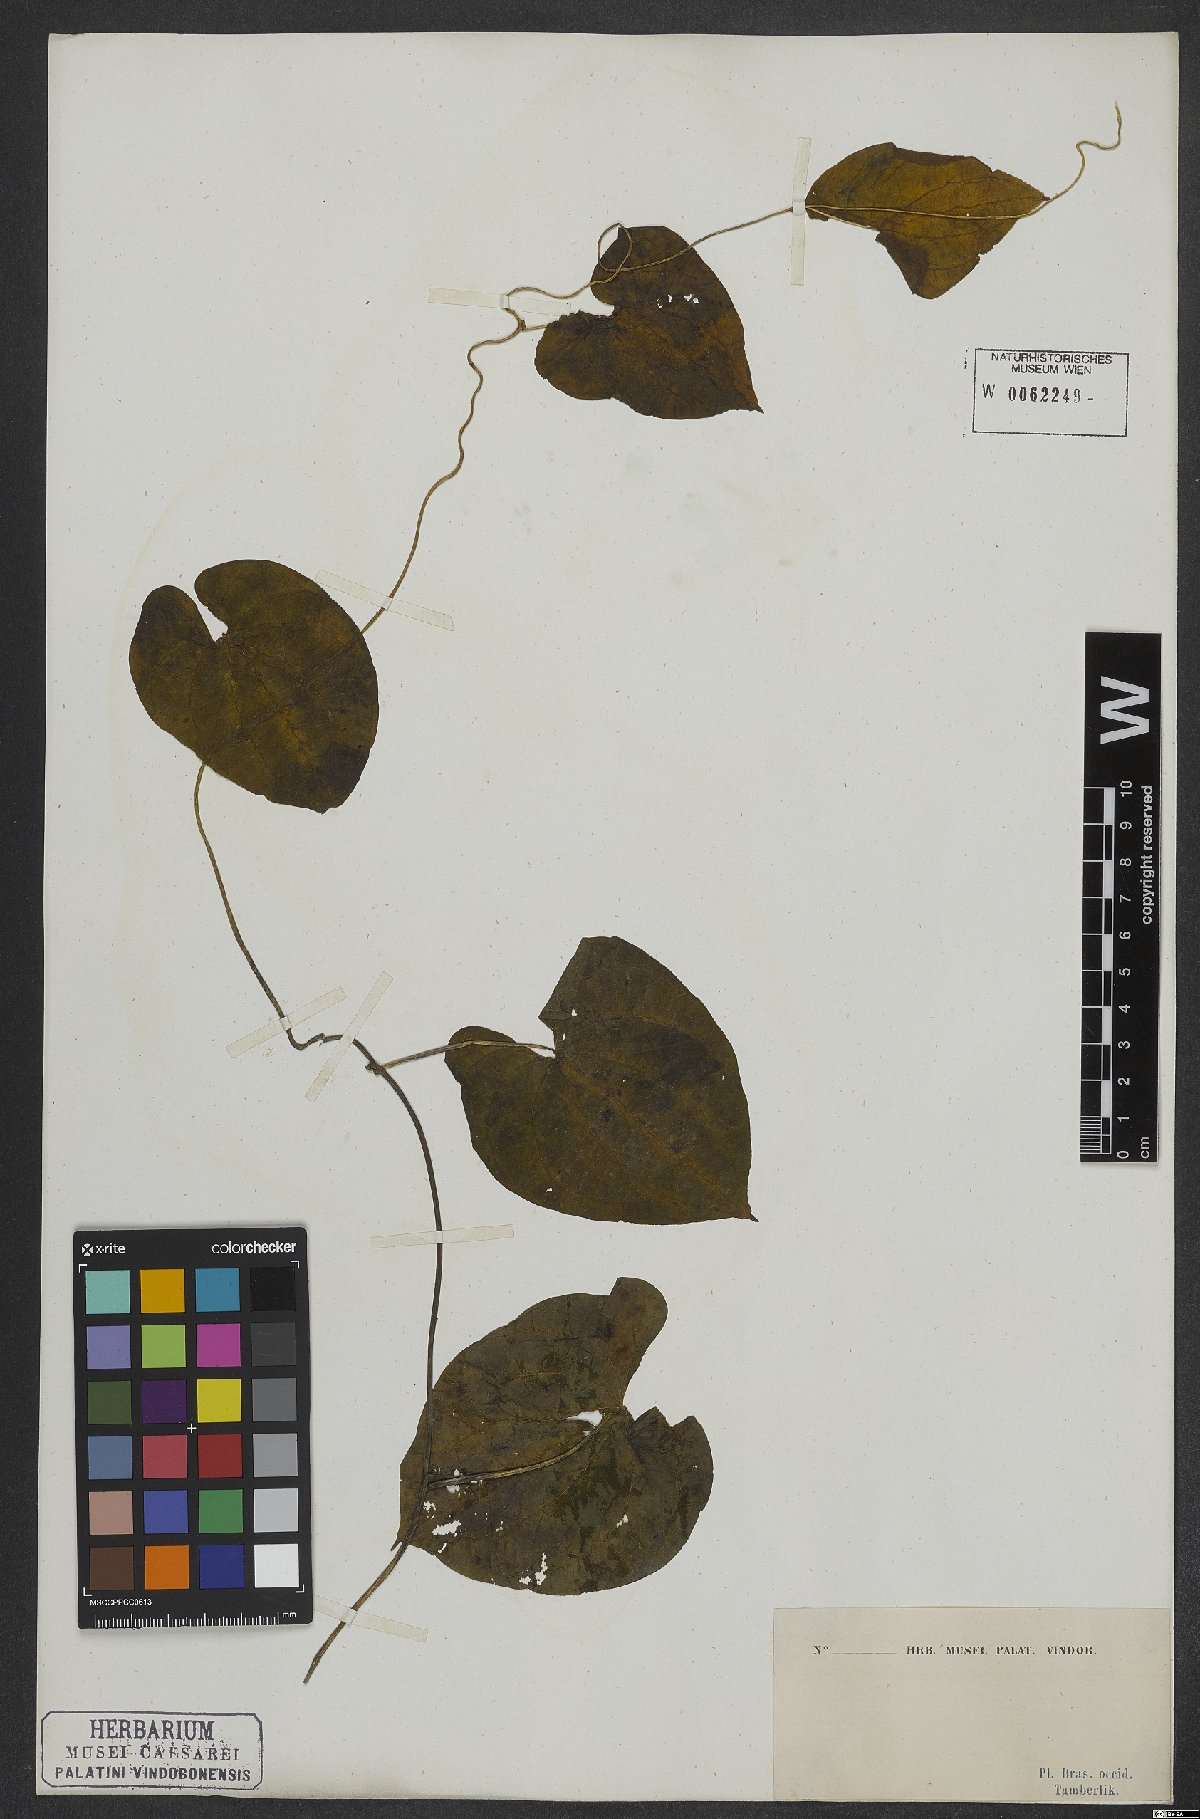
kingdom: Plantae
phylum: Tracheophyta
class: Magnoliopsida
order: Solanales
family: Convolvulaceae
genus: Ipomoea
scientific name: Ipomoea hildebrandtii
